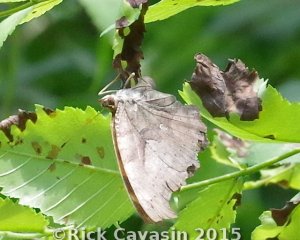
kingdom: Animalia
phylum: Arthropoda
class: Insecta
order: Lepidoptera
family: Nymphalidae
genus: Polygonia
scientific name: Polygonia interrogationis
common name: Question Mark
